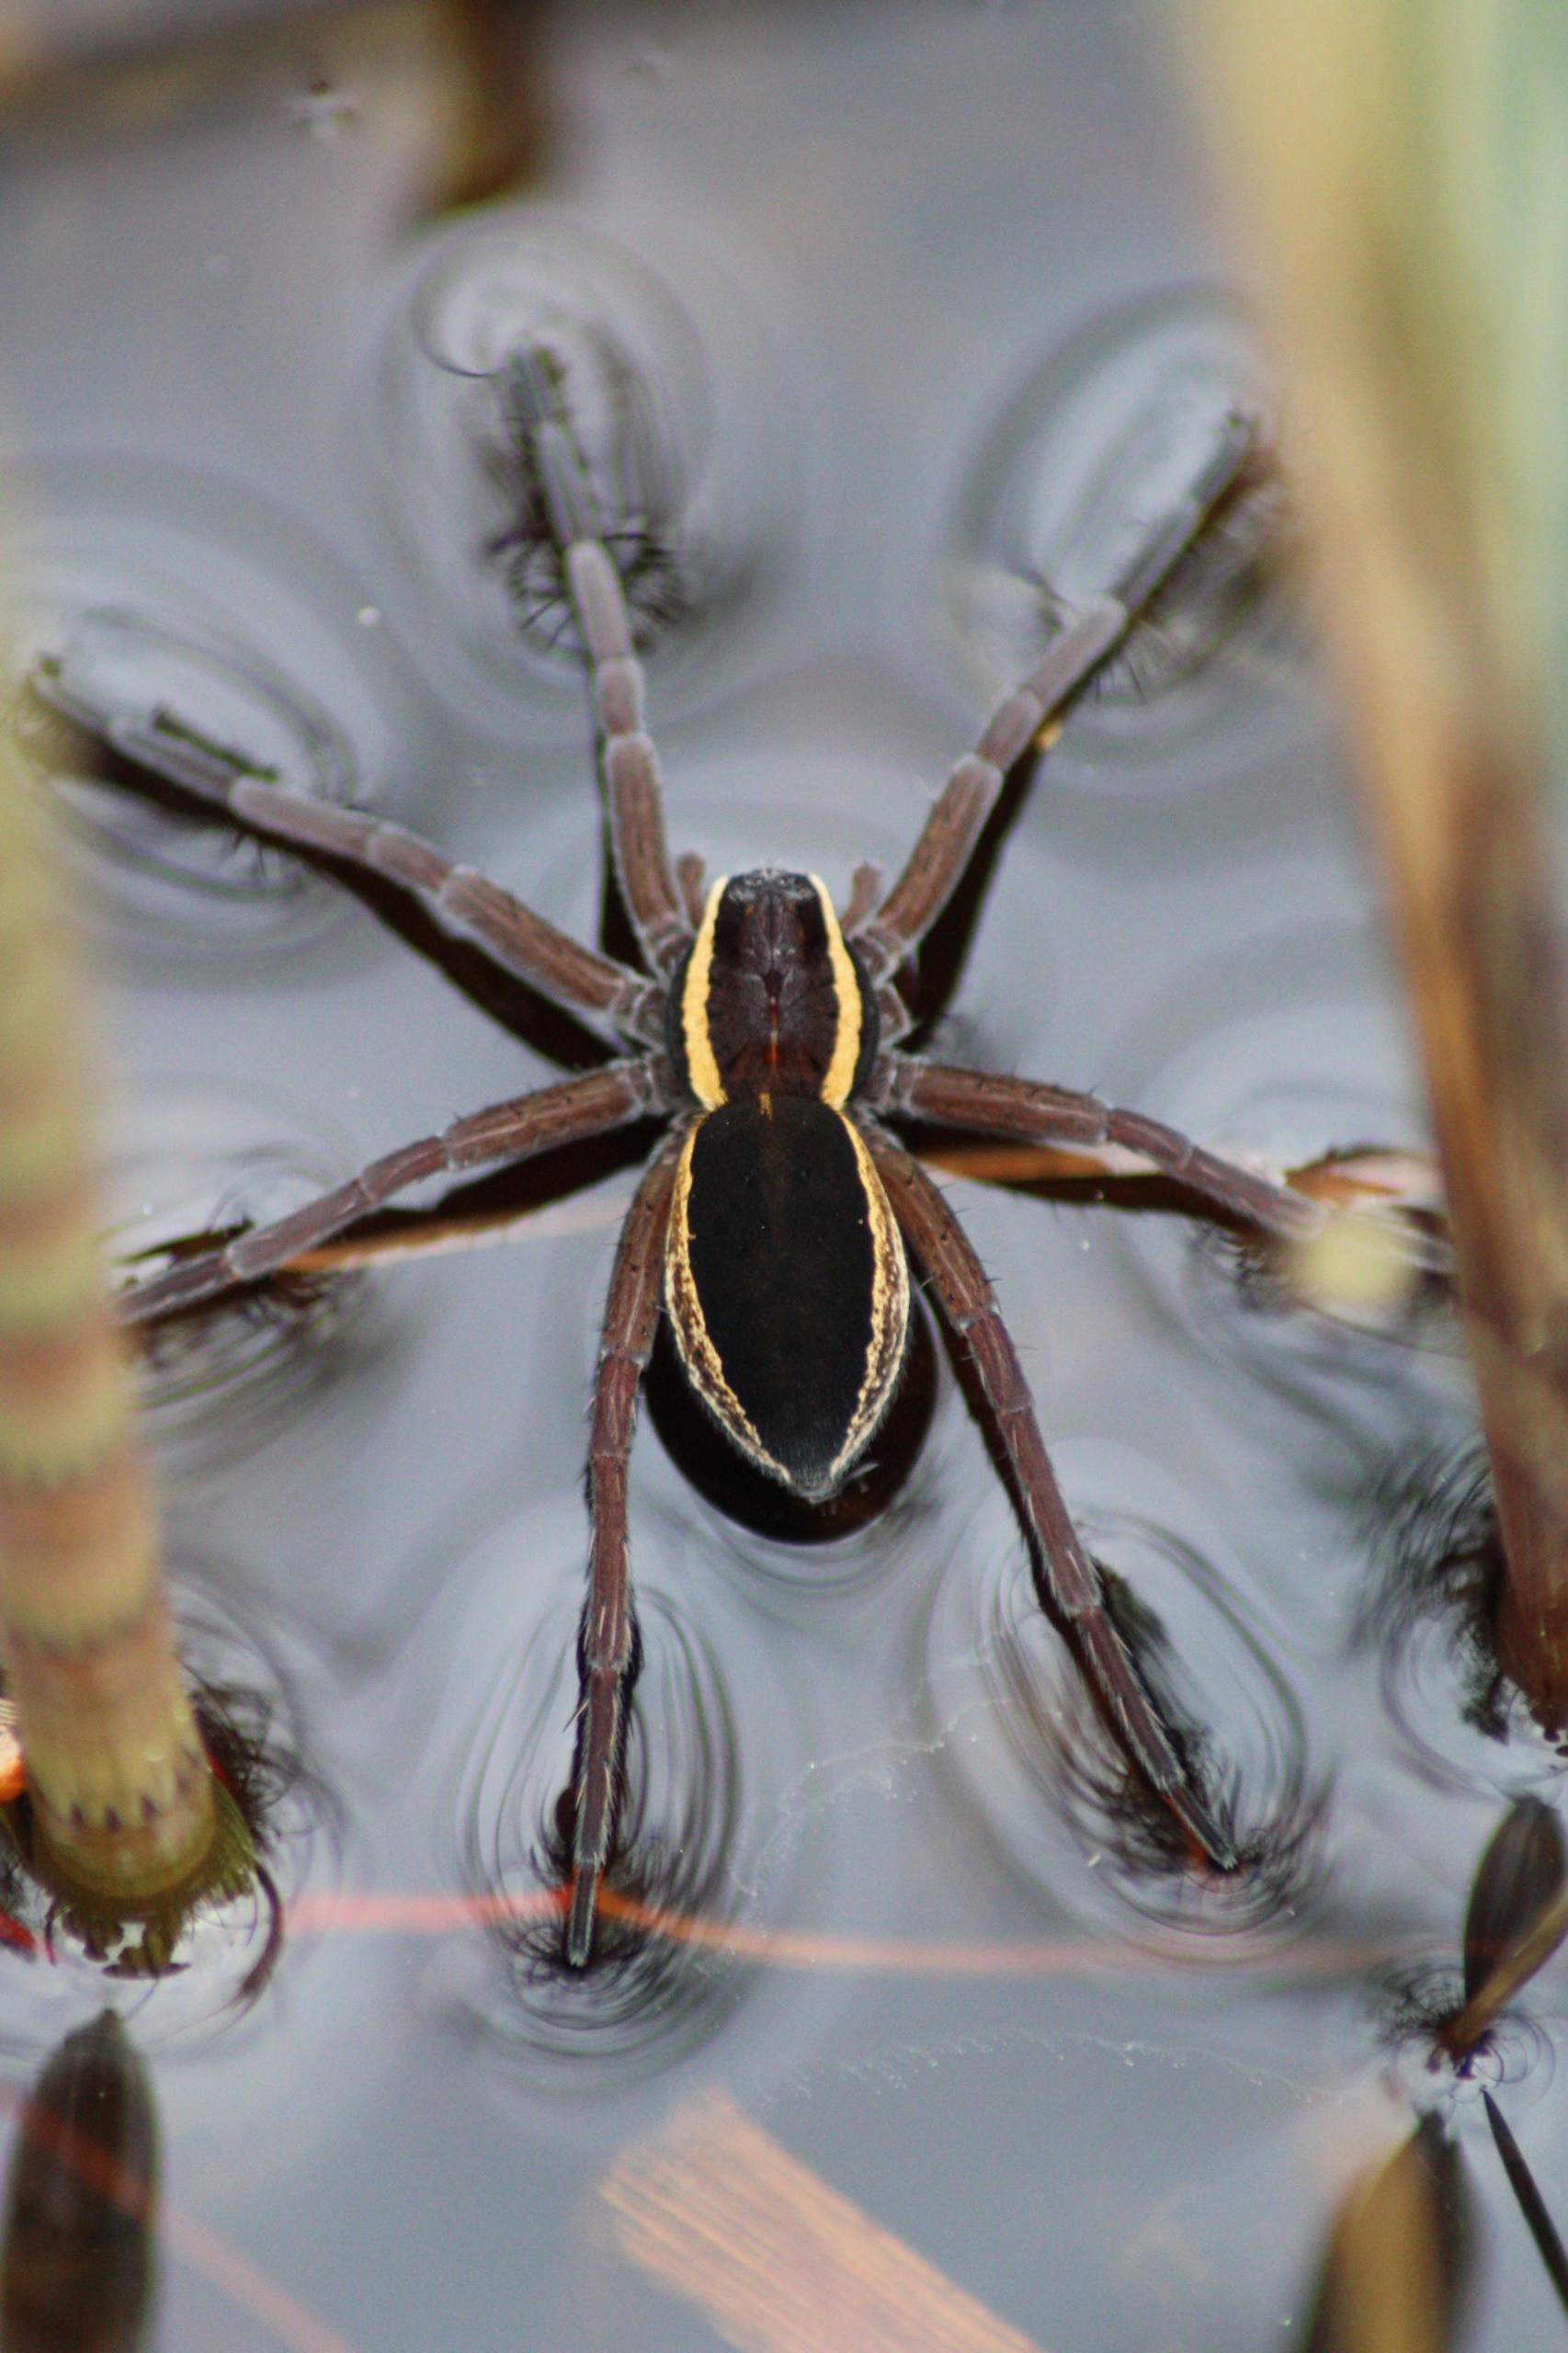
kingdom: Animalia
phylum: Arthropoda
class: Arachnida
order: Araneae
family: Pisauridae
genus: Dolomedes
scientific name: Dolomedes
